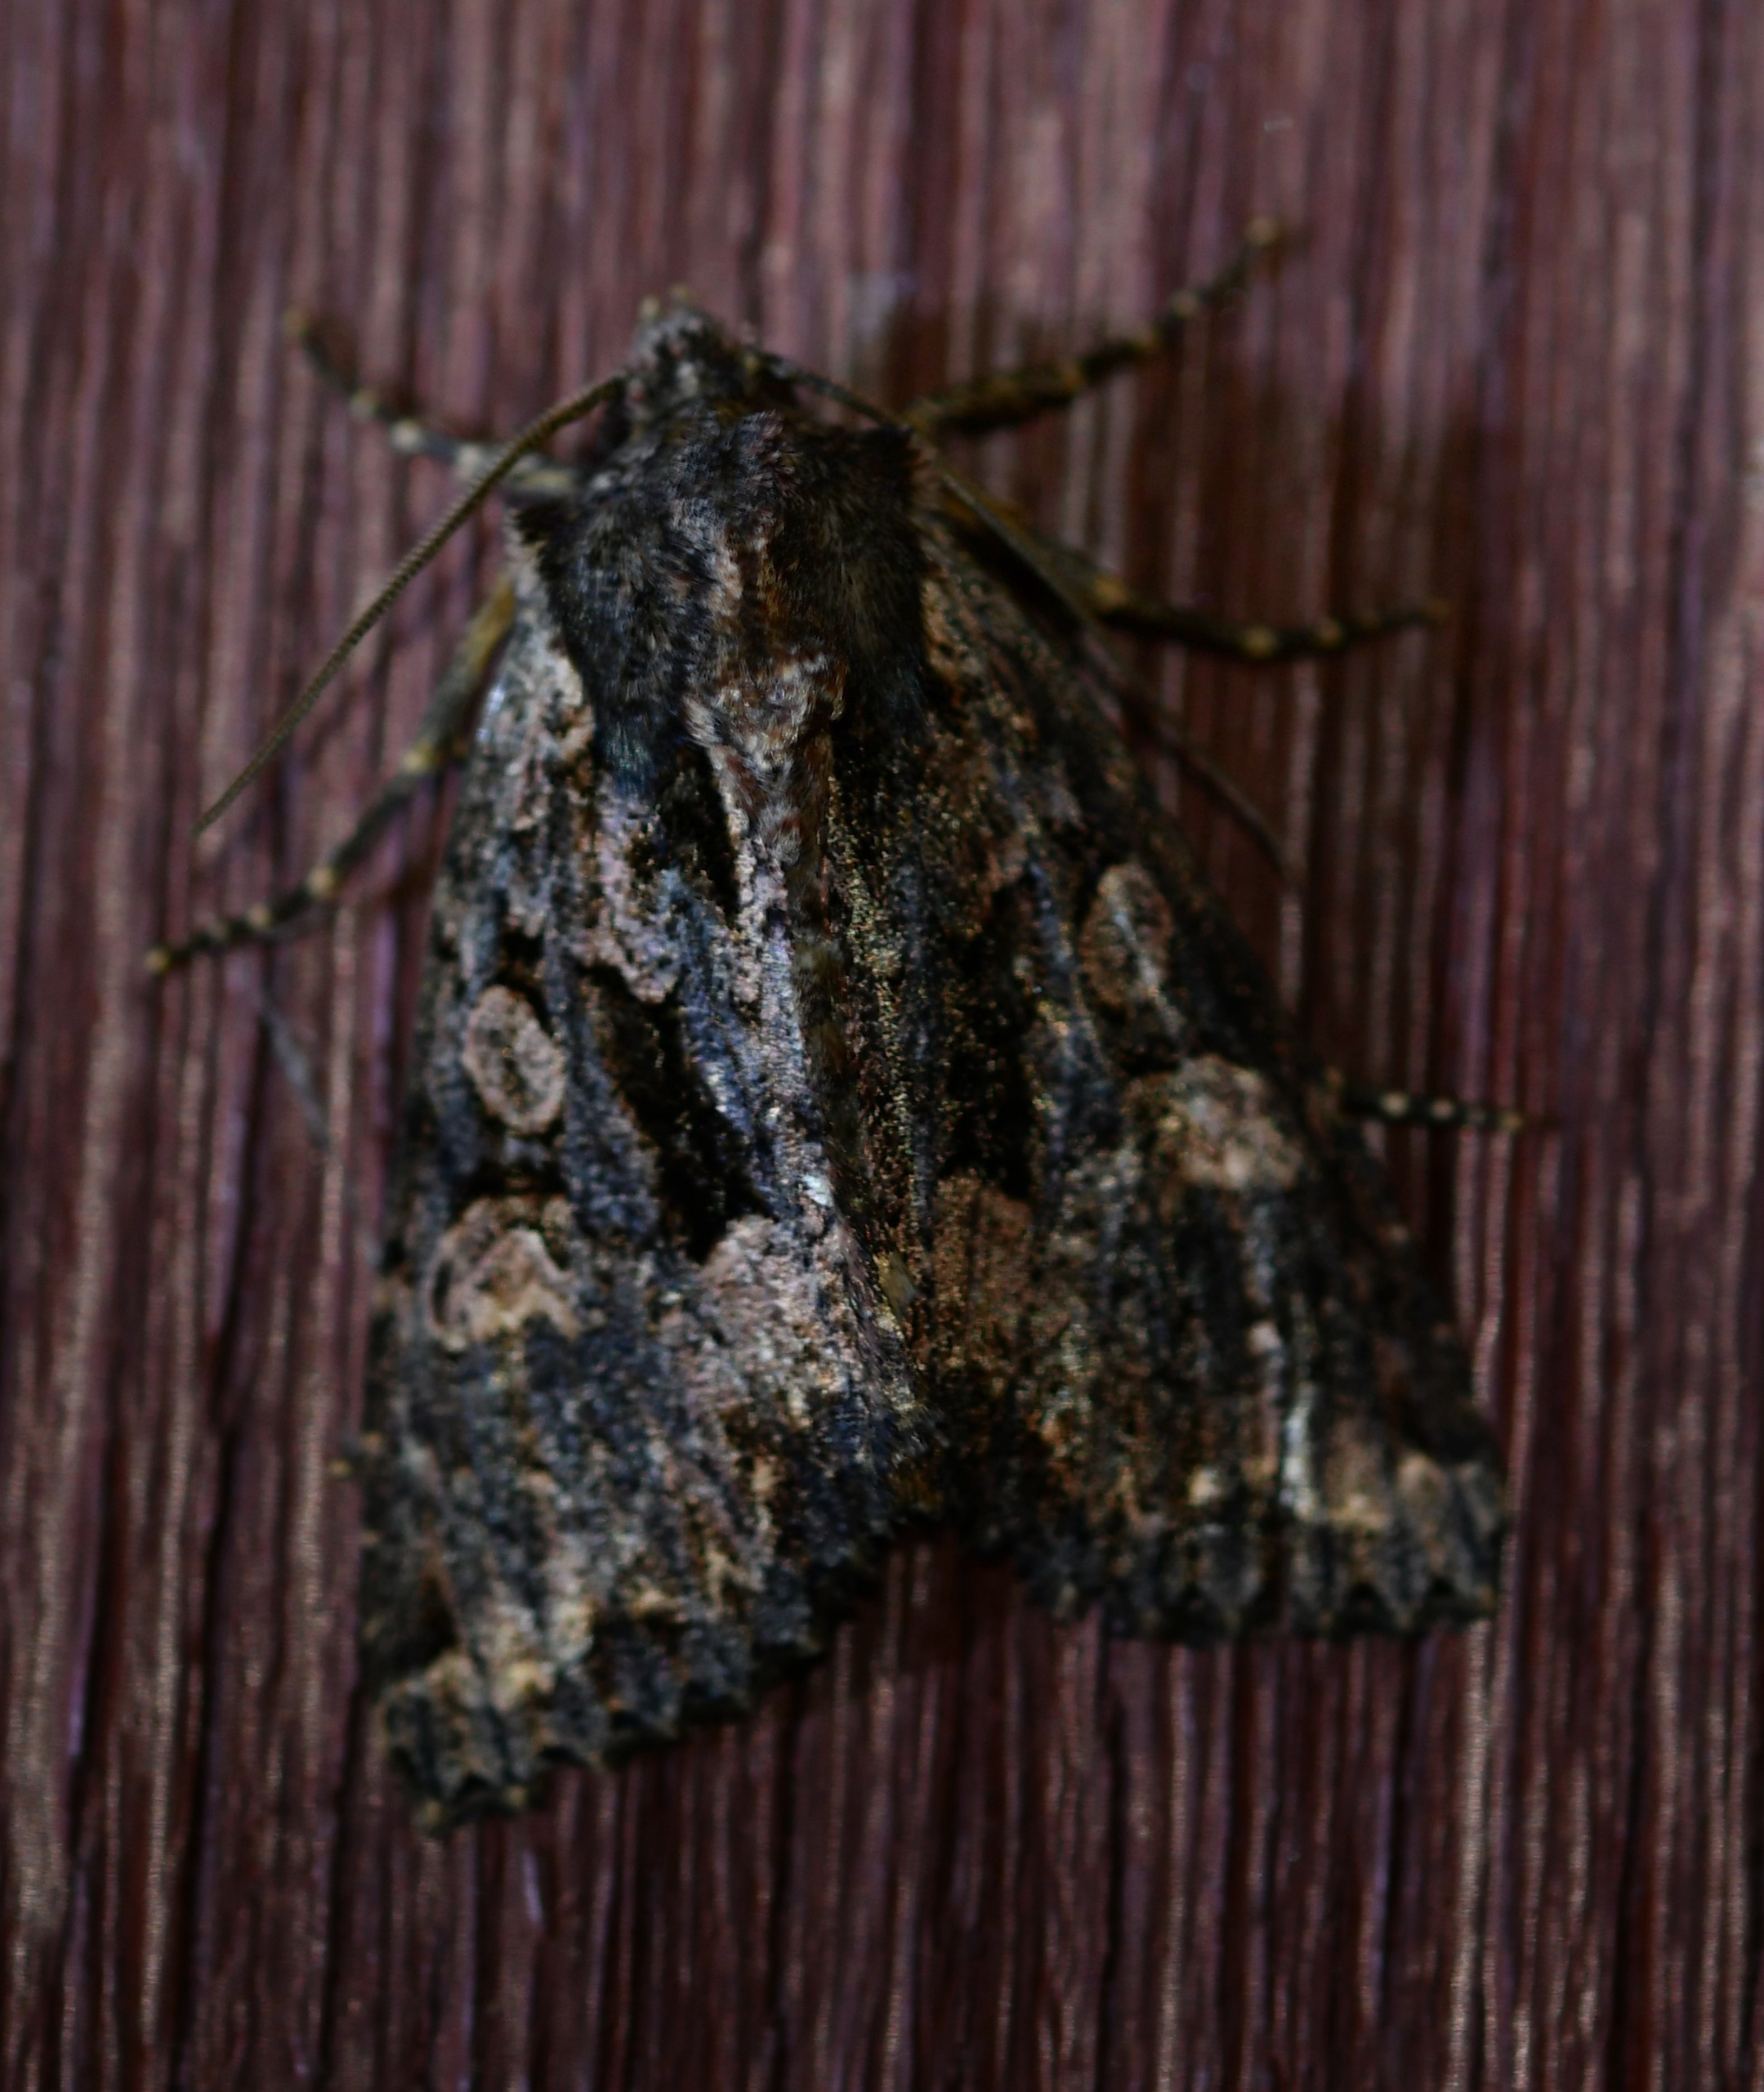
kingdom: Animalia
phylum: Arthropoda
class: Insecta
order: Lepidoptera
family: Noctuidae
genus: Mniotype
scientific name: Mniotype satura
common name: August-mosugle
